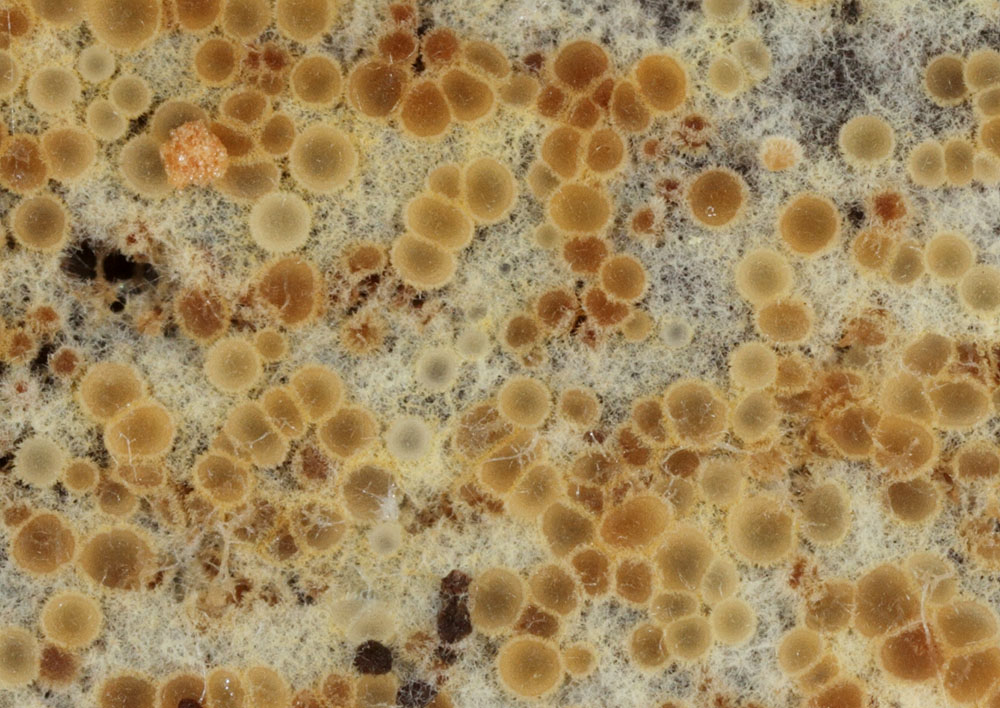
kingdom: Fungi
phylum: Ascomycota
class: Leotiomycetes
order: Helotiales
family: Arachnopezizaceae
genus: Arachnopeziza
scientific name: Arachnopeziza aurata
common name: bleggul spindskive
